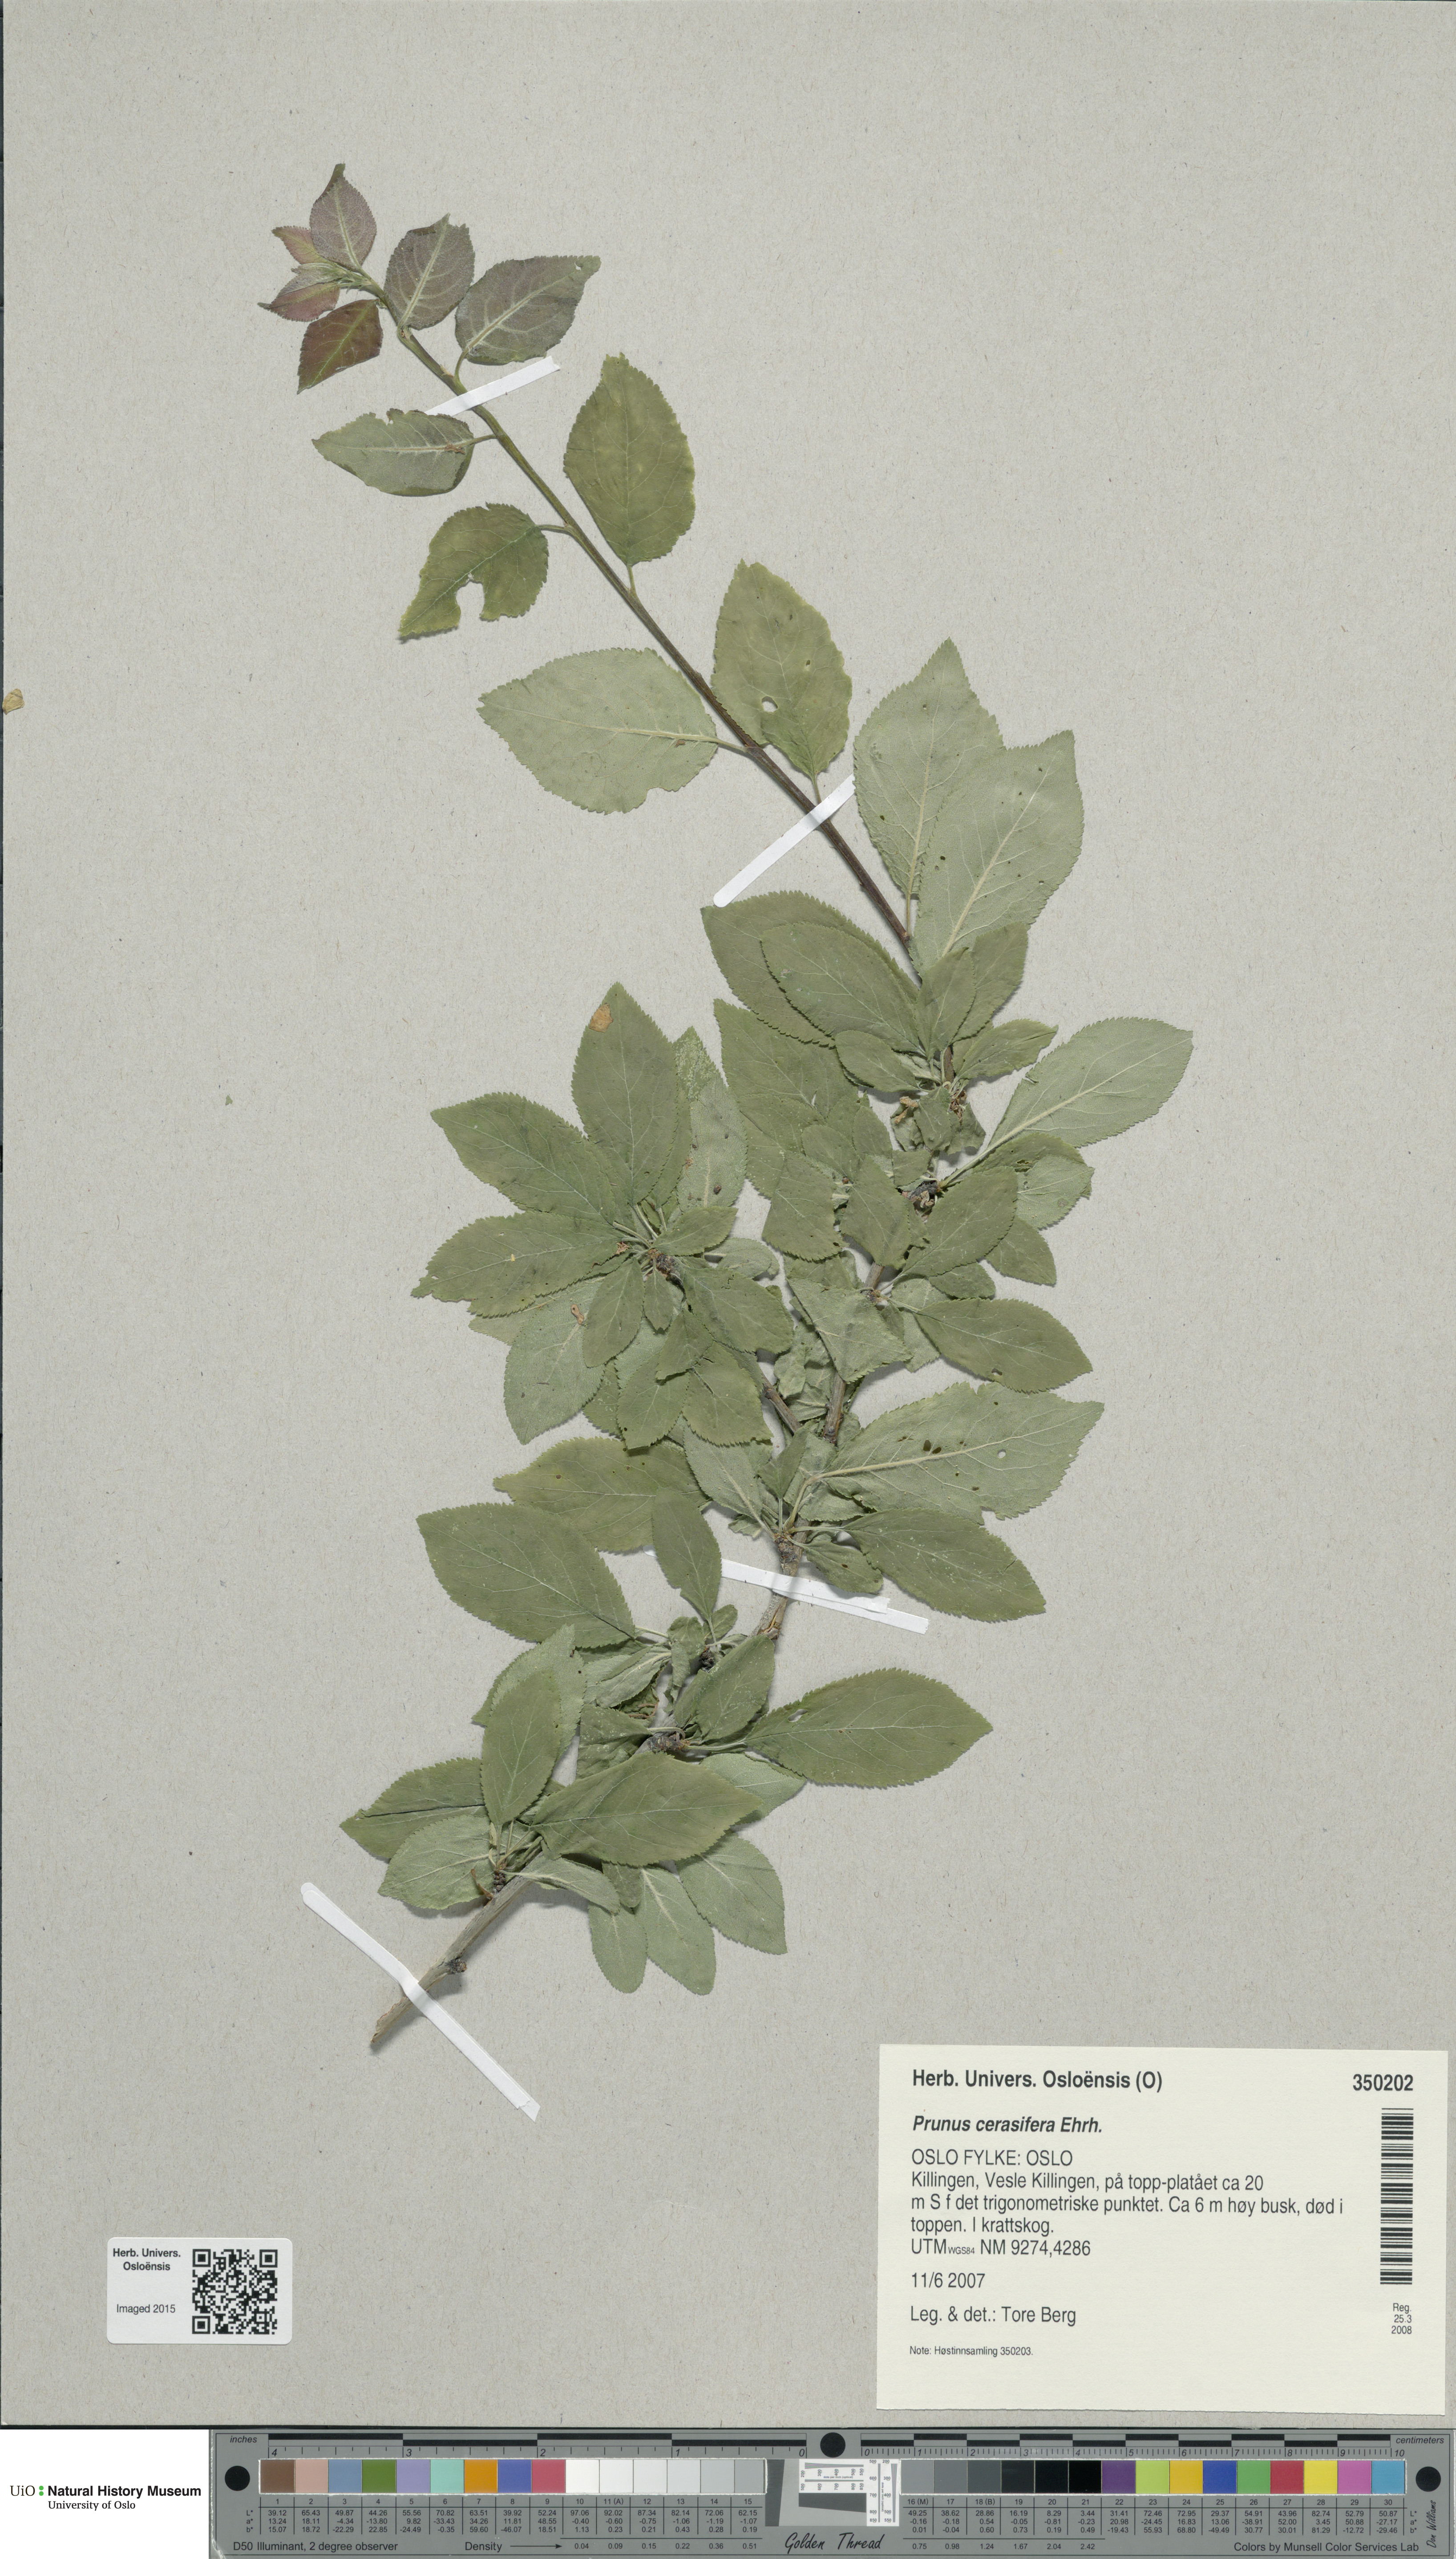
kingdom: Plantae
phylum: Tracheophyta
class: Magnoliopsida
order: Rosales
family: Rosaceae
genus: Prunus
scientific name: Prunus cerasifera
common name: Cherry plum
